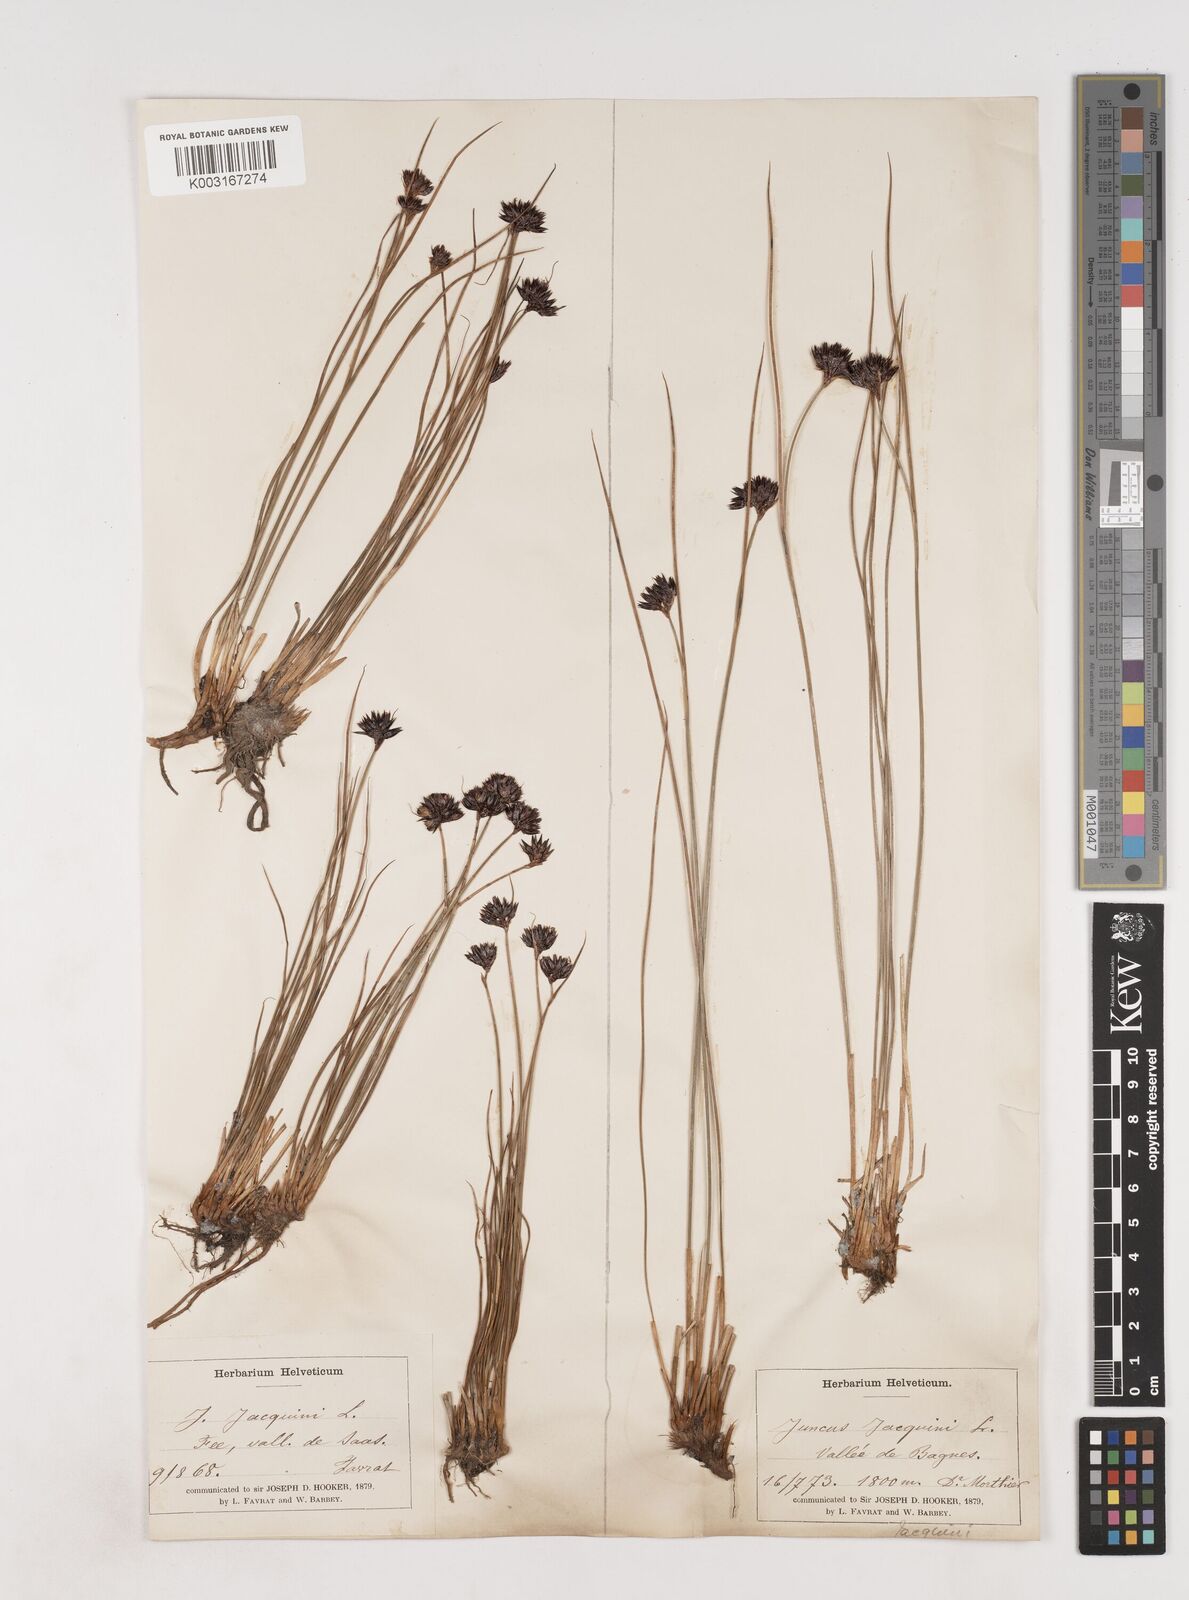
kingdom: Plantae
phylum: Tracheophyta
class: Liliopsida
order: Poales
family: Juncaceae
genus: Juncus
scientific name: Juncus jacquinii
